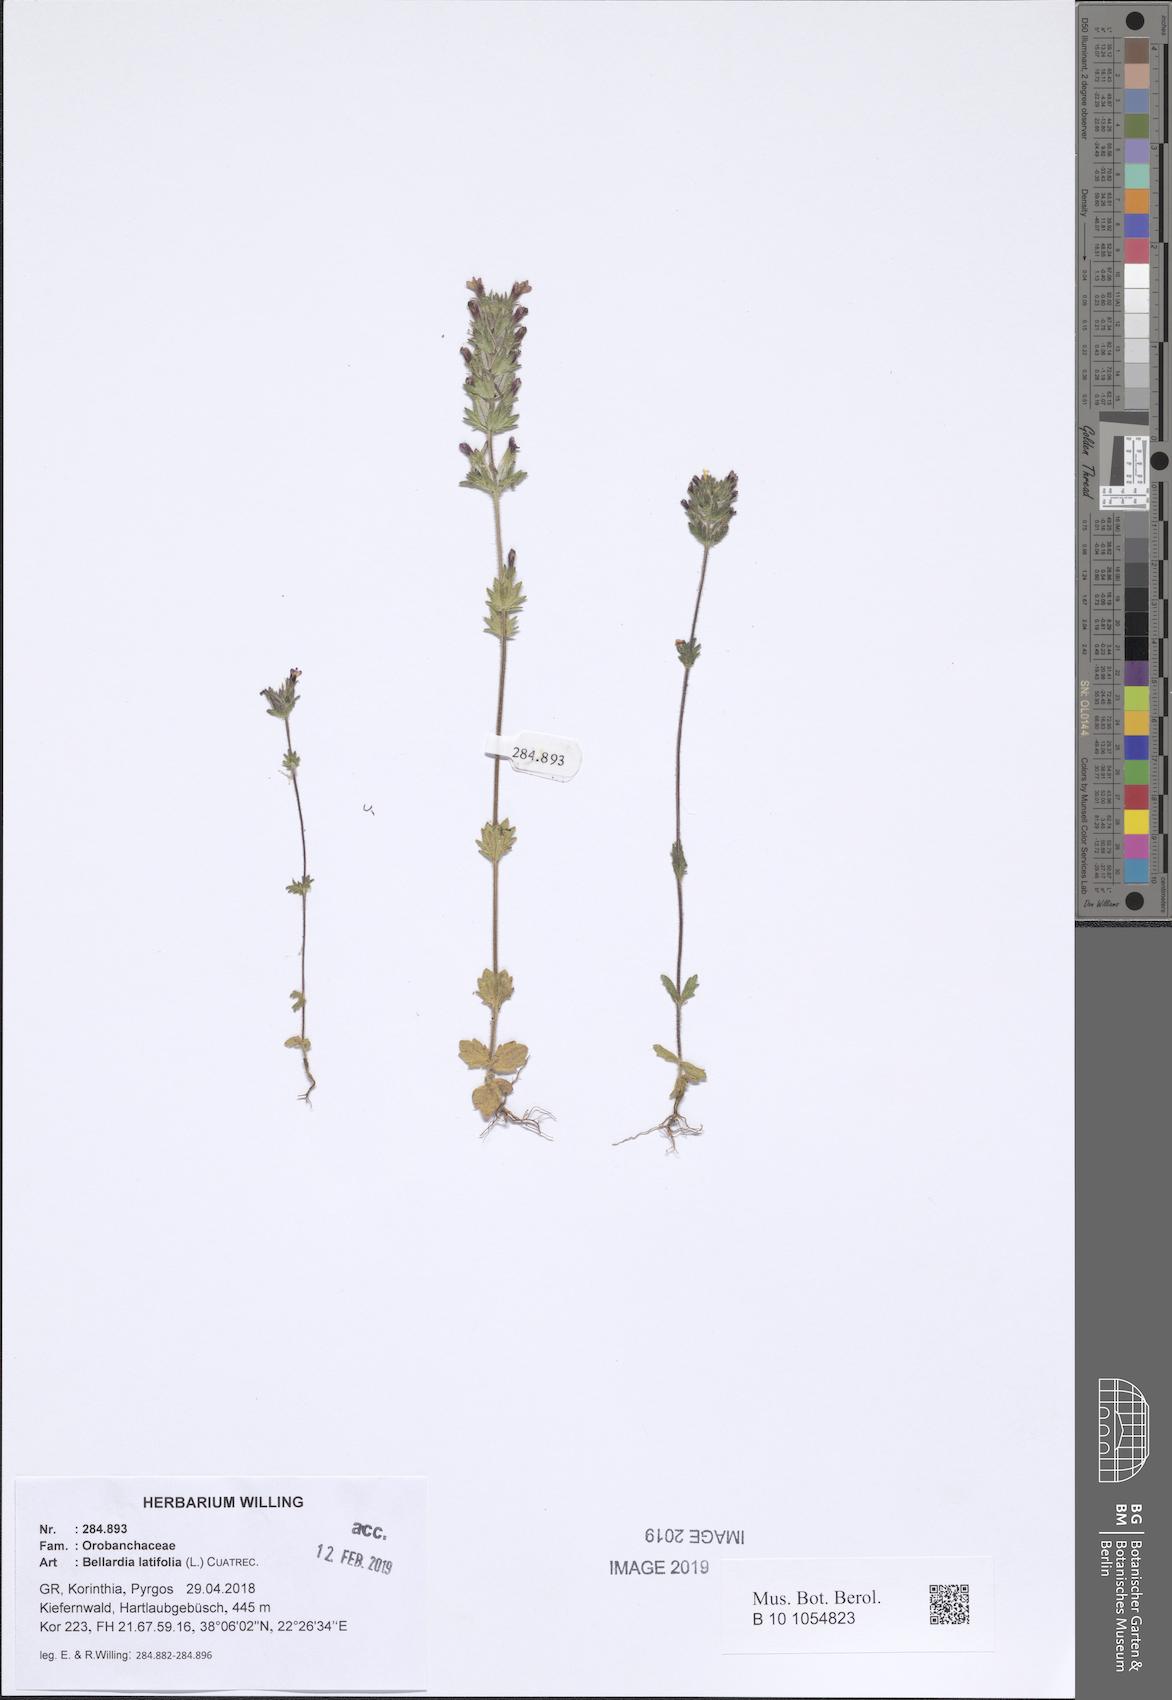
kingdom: Plantae
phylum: Tracheophyta
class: Magnoliopsida
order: Lamiales
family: Orobanchaceae
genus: Parentucellia
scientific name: Parentucellia latifolia
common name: Broadleaf glandweed
